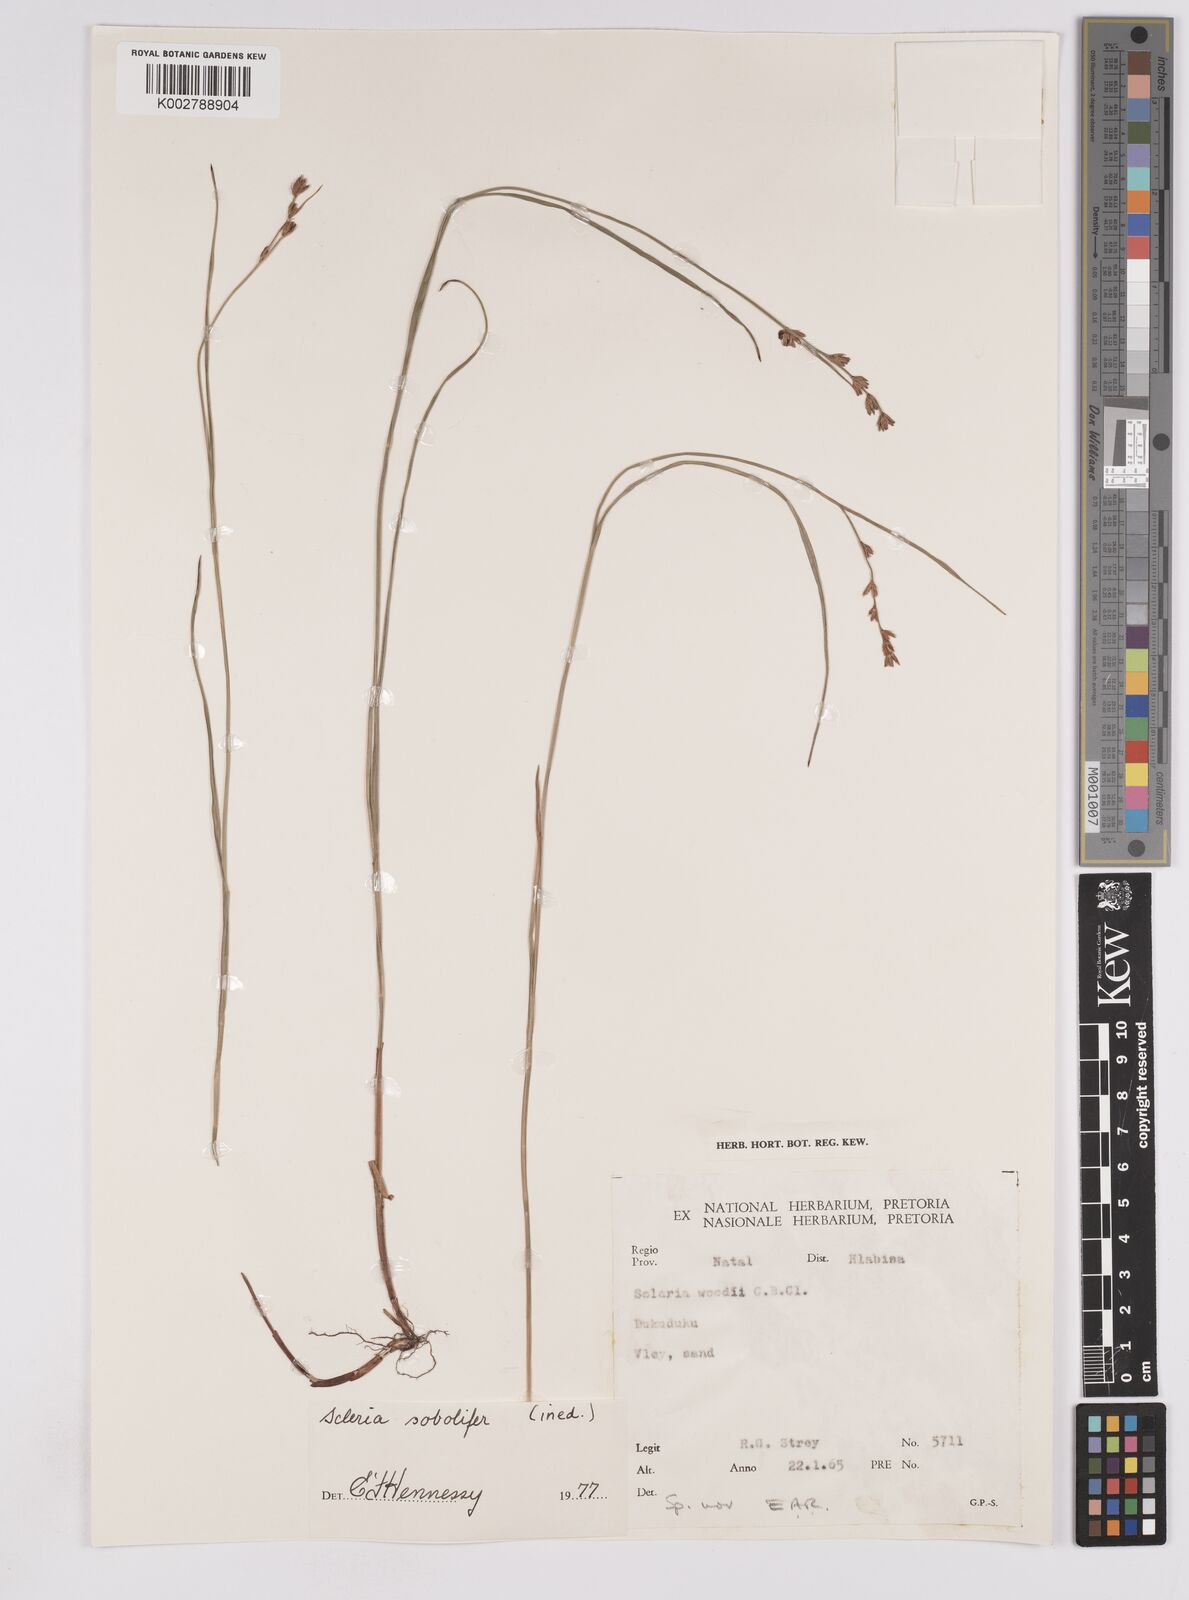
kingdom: Plantae
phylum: Tracheophyta
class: Liliopsida
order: Poales
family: Cyperaceae
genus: Scleria
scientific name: Scleria sobolifera
